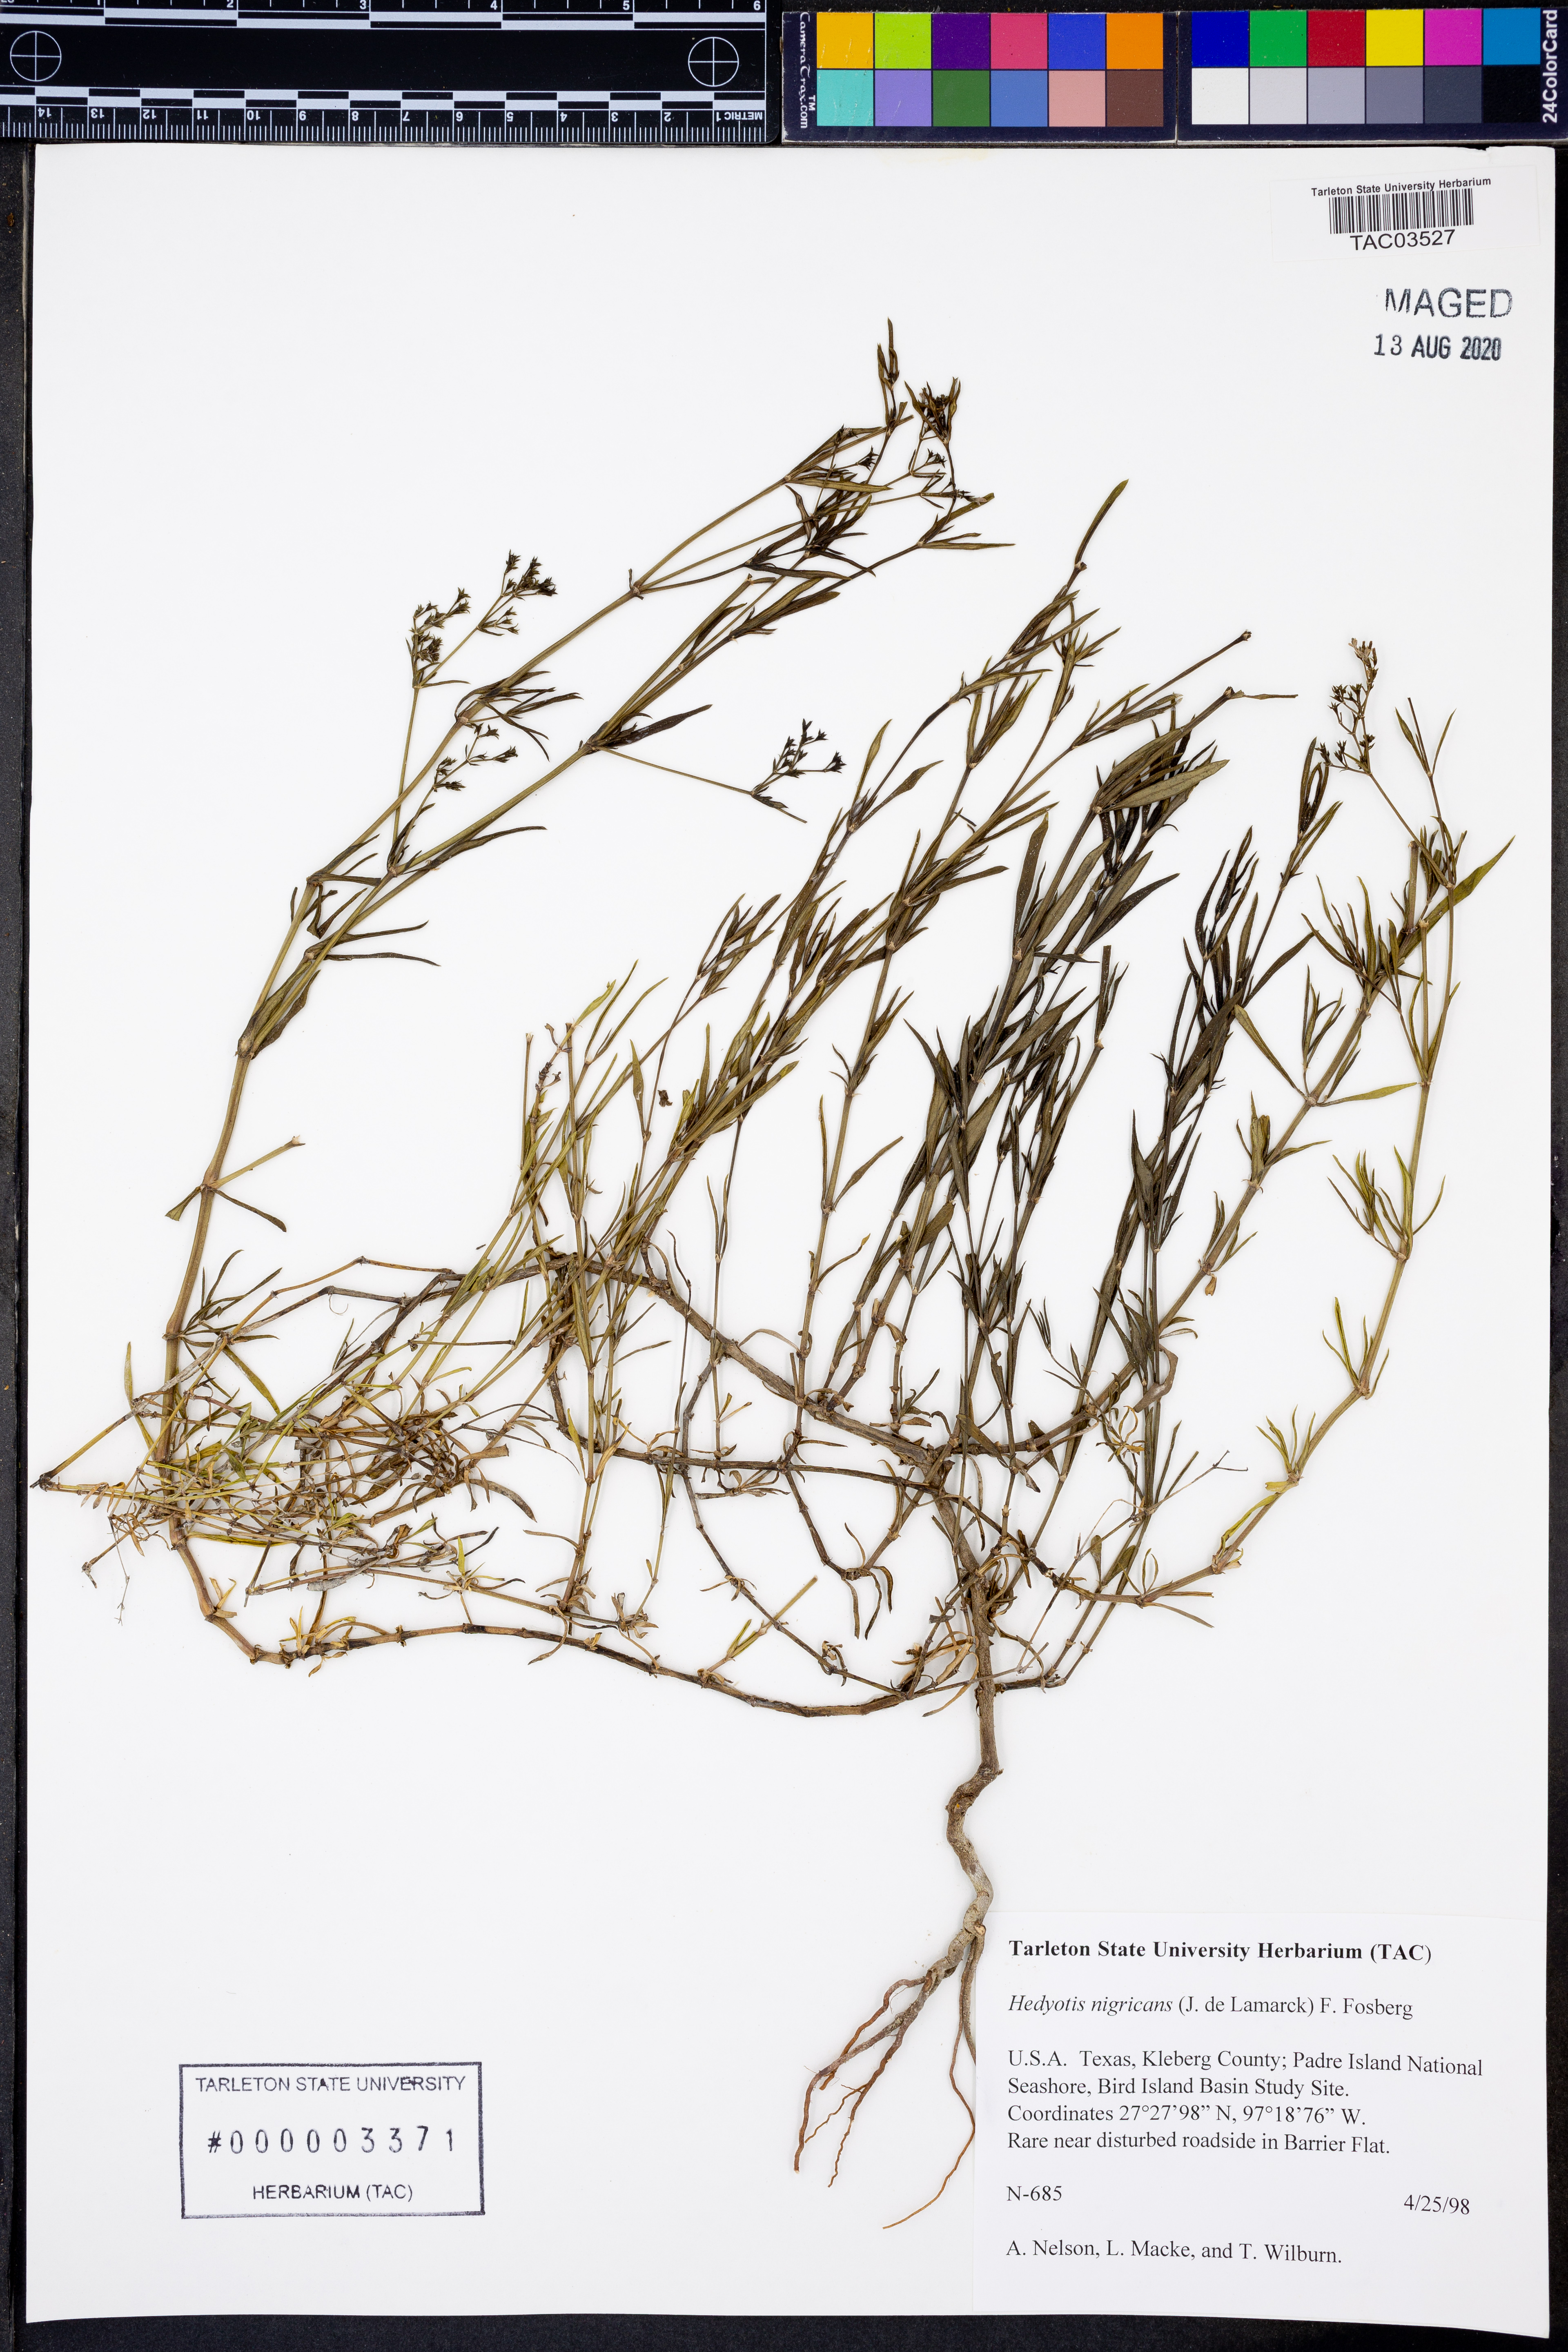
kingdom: Plantae
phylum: Tracheophyta
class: Magnoliopsida
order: Gentianales
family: Rubiaceae
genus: Stenaria
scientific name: Stenaria nigricans
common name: Diamondflowers
